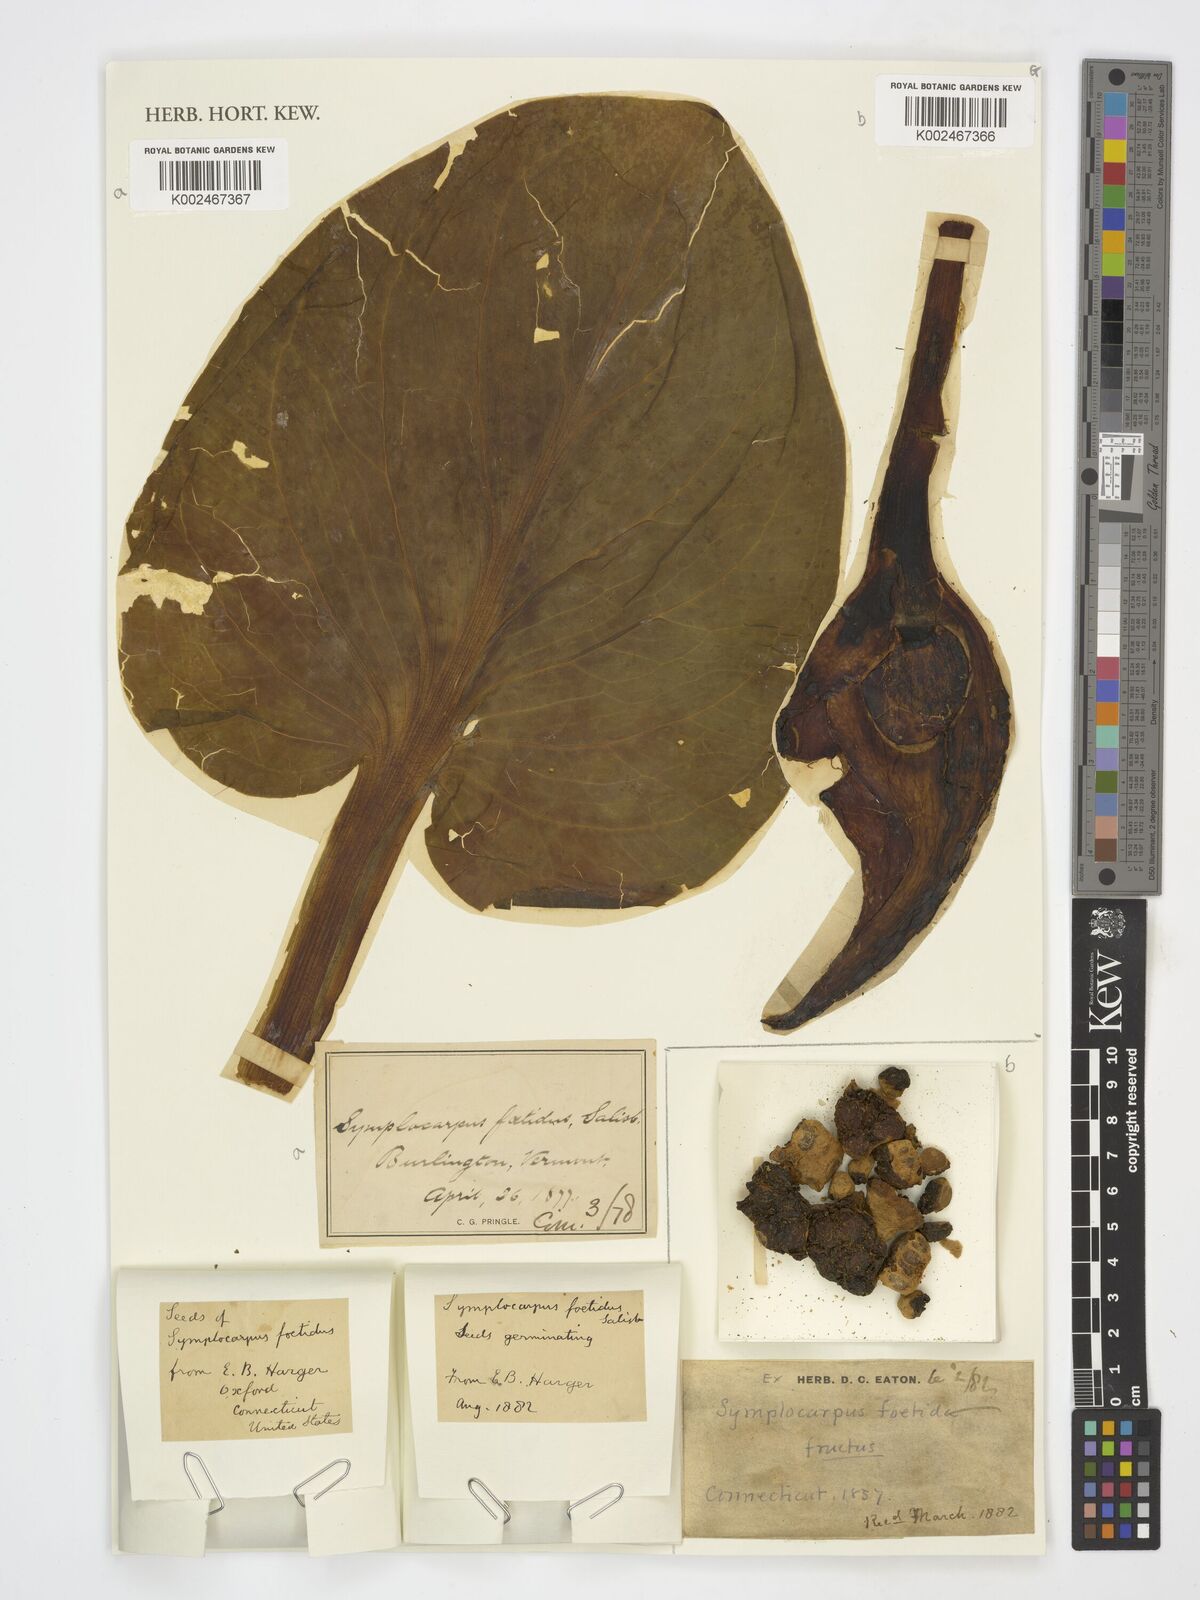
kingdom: Plantae
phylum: Tracheophyta
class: Liliopsida
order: Alismatales
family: Araceae
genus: Symplocarpus
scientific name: Symplocarpus foetidus
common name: Eastern skunk cabbage
